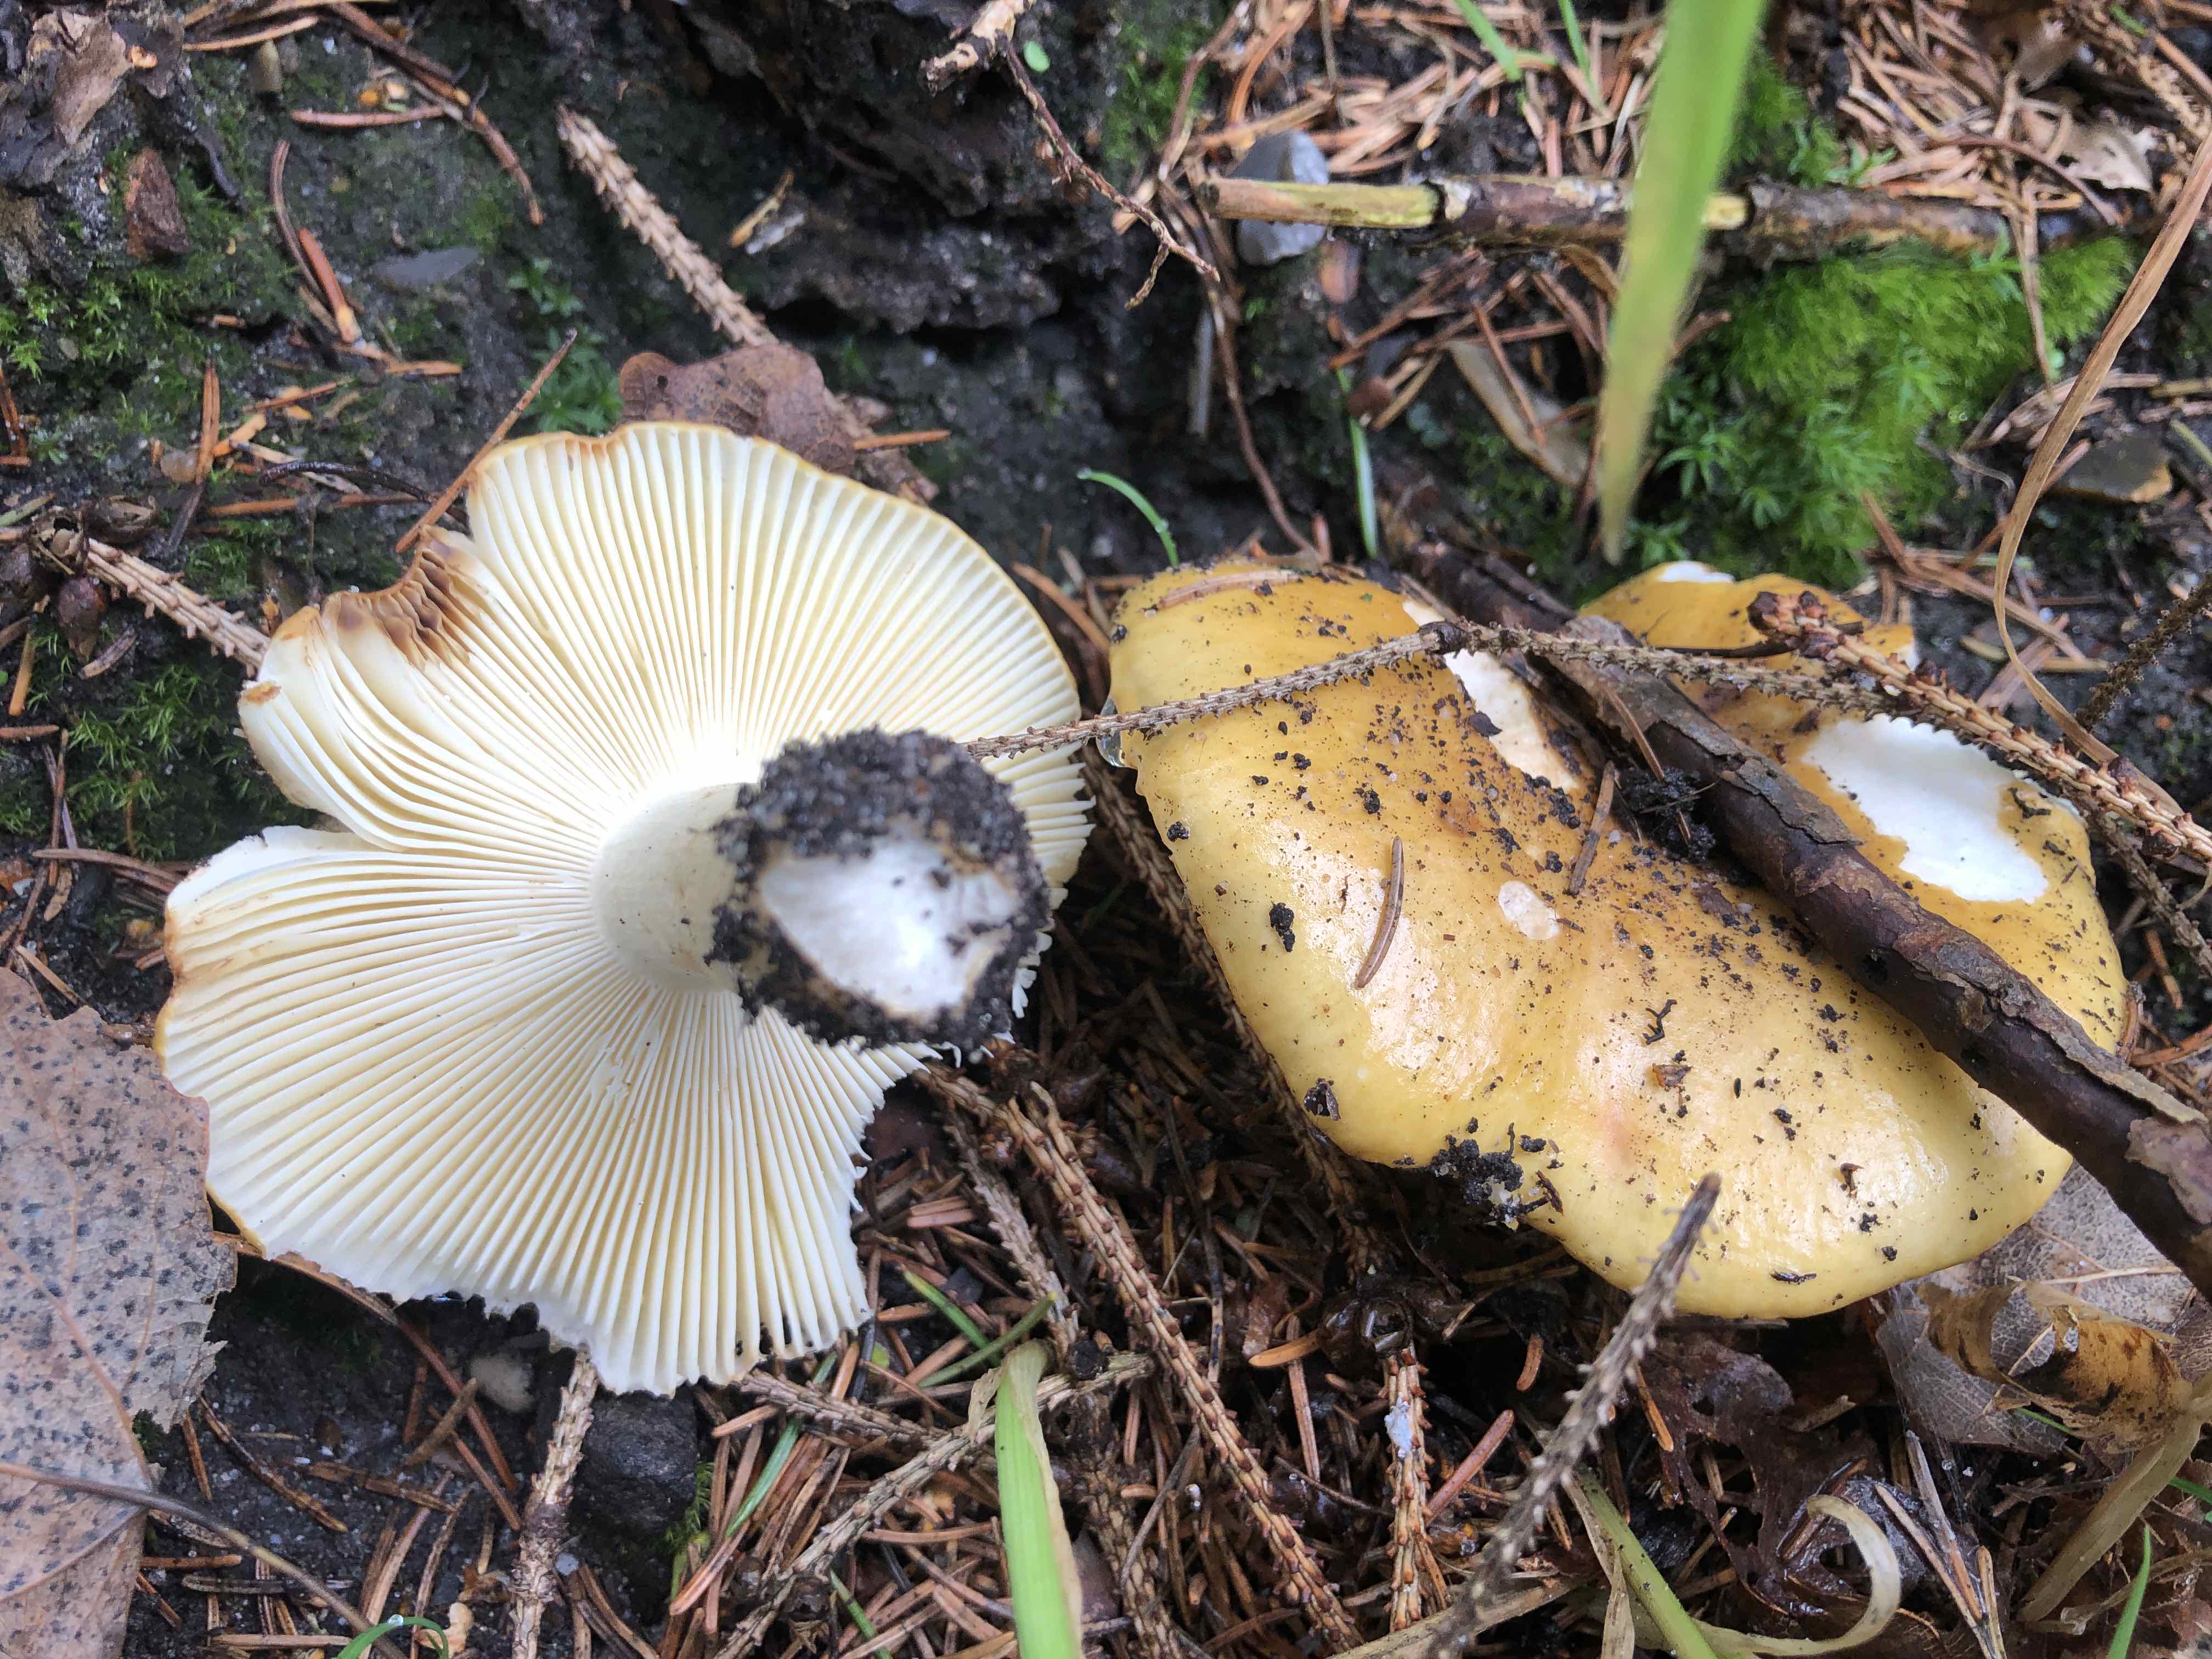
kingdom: Fungi
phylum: Basidiomycota
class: Agaricomycetes
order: Russulales
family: Russulaceae
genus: Russula
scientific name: Russula ochroleuca
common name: okkergul skørhat
